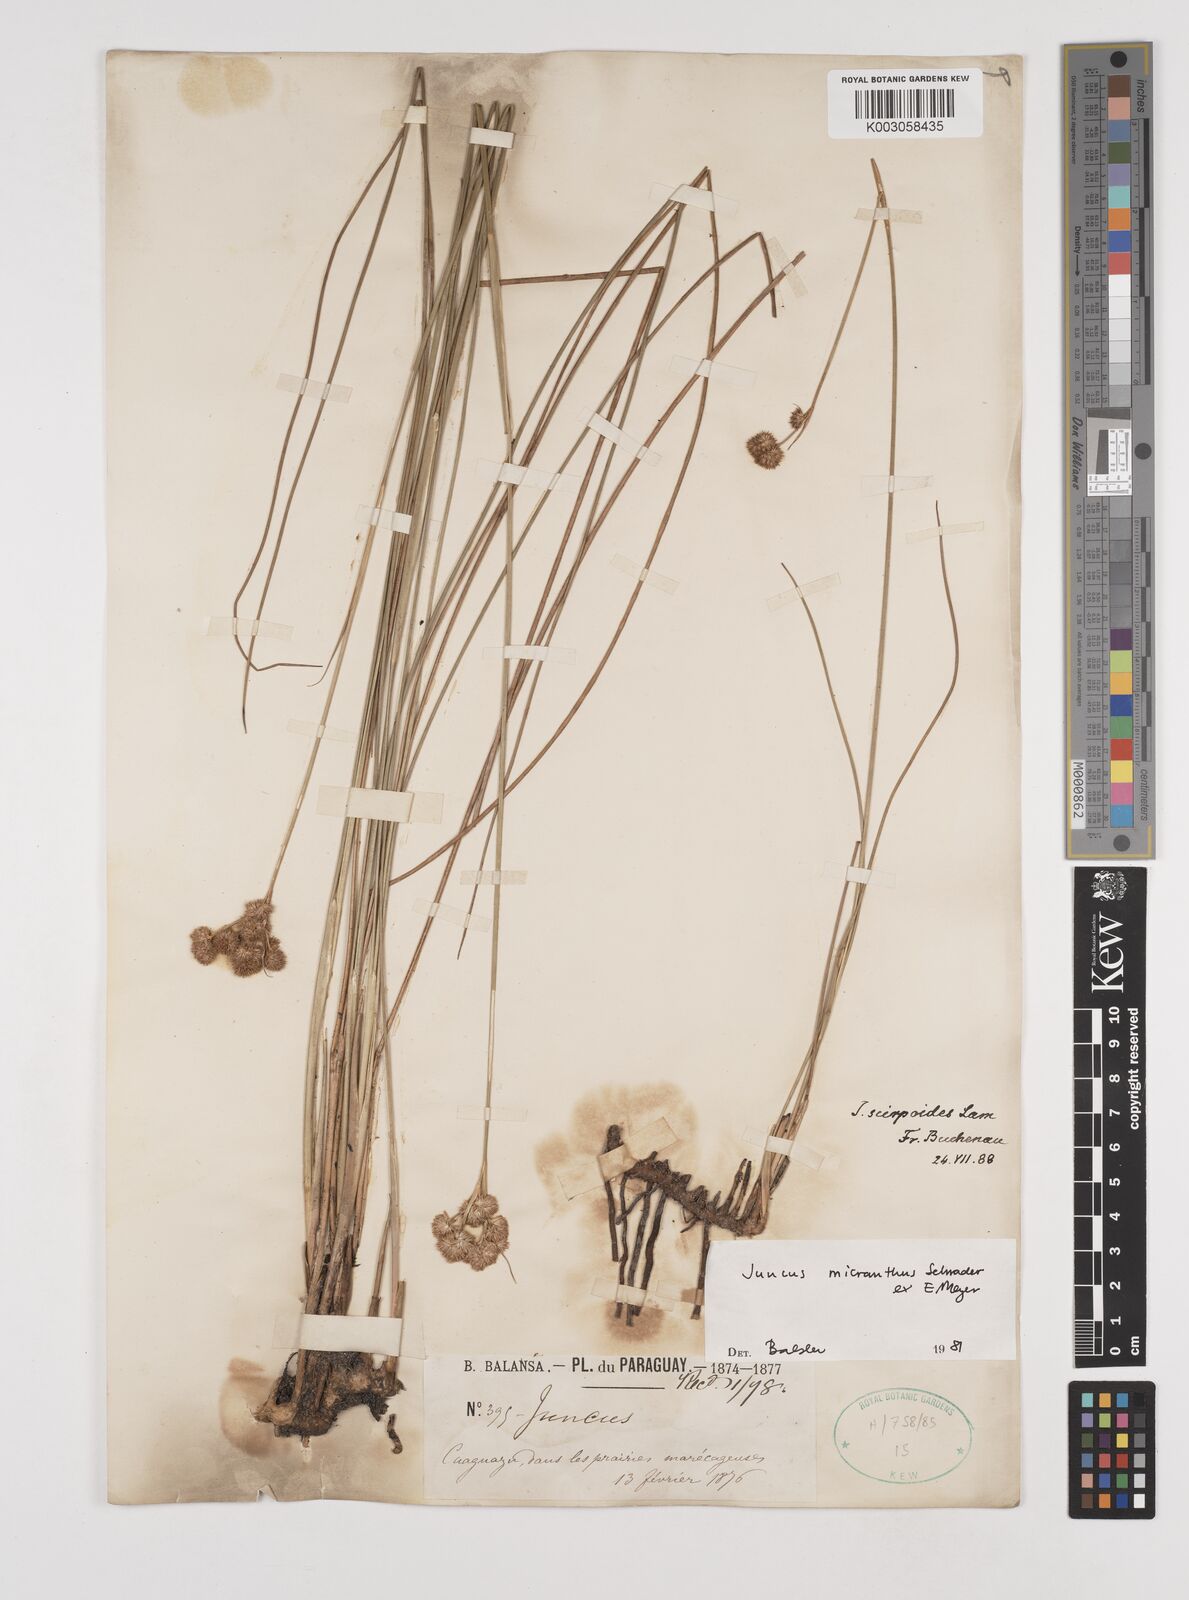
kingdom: Plantae
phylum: Tracheophyta
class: Liliopsida
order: Poales
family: Juncaceae
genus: Juncus
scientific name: Juncus micranthus
